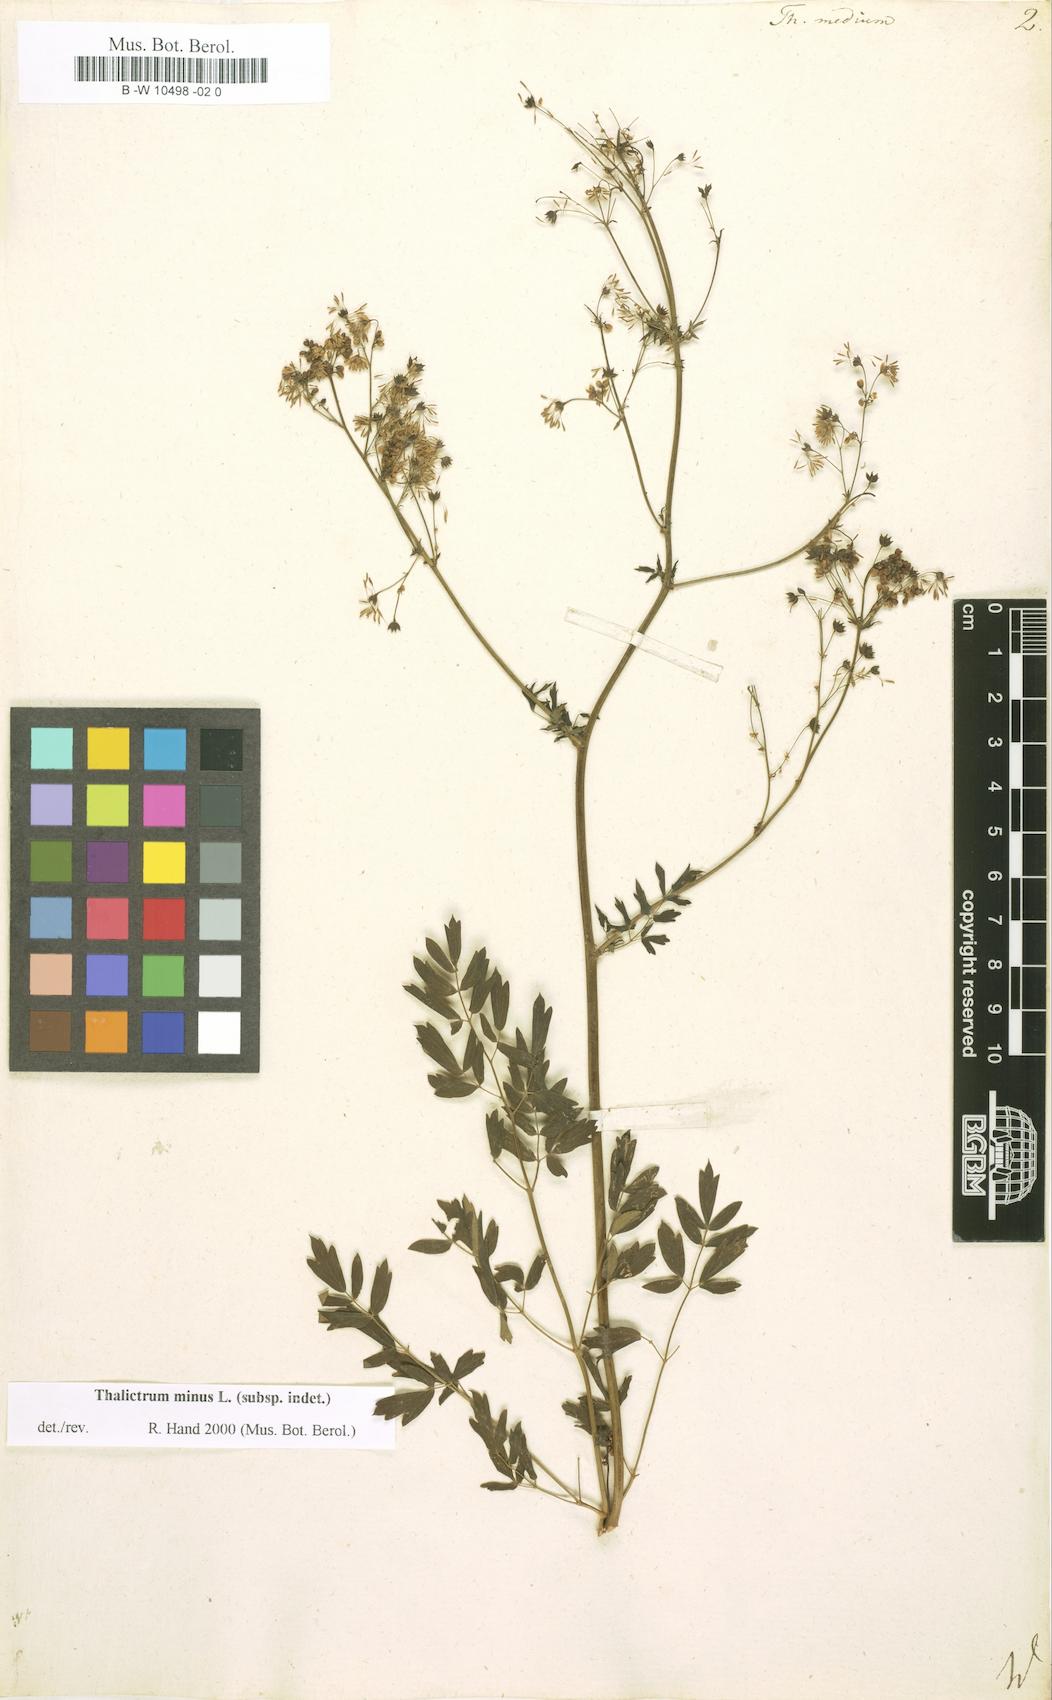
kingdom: Plantae
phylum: Tracheophyta
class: Magnoliopsida
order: Ranunculales
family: Ranunculaceae
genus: Thalictrum
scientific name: Thalictrum medium
